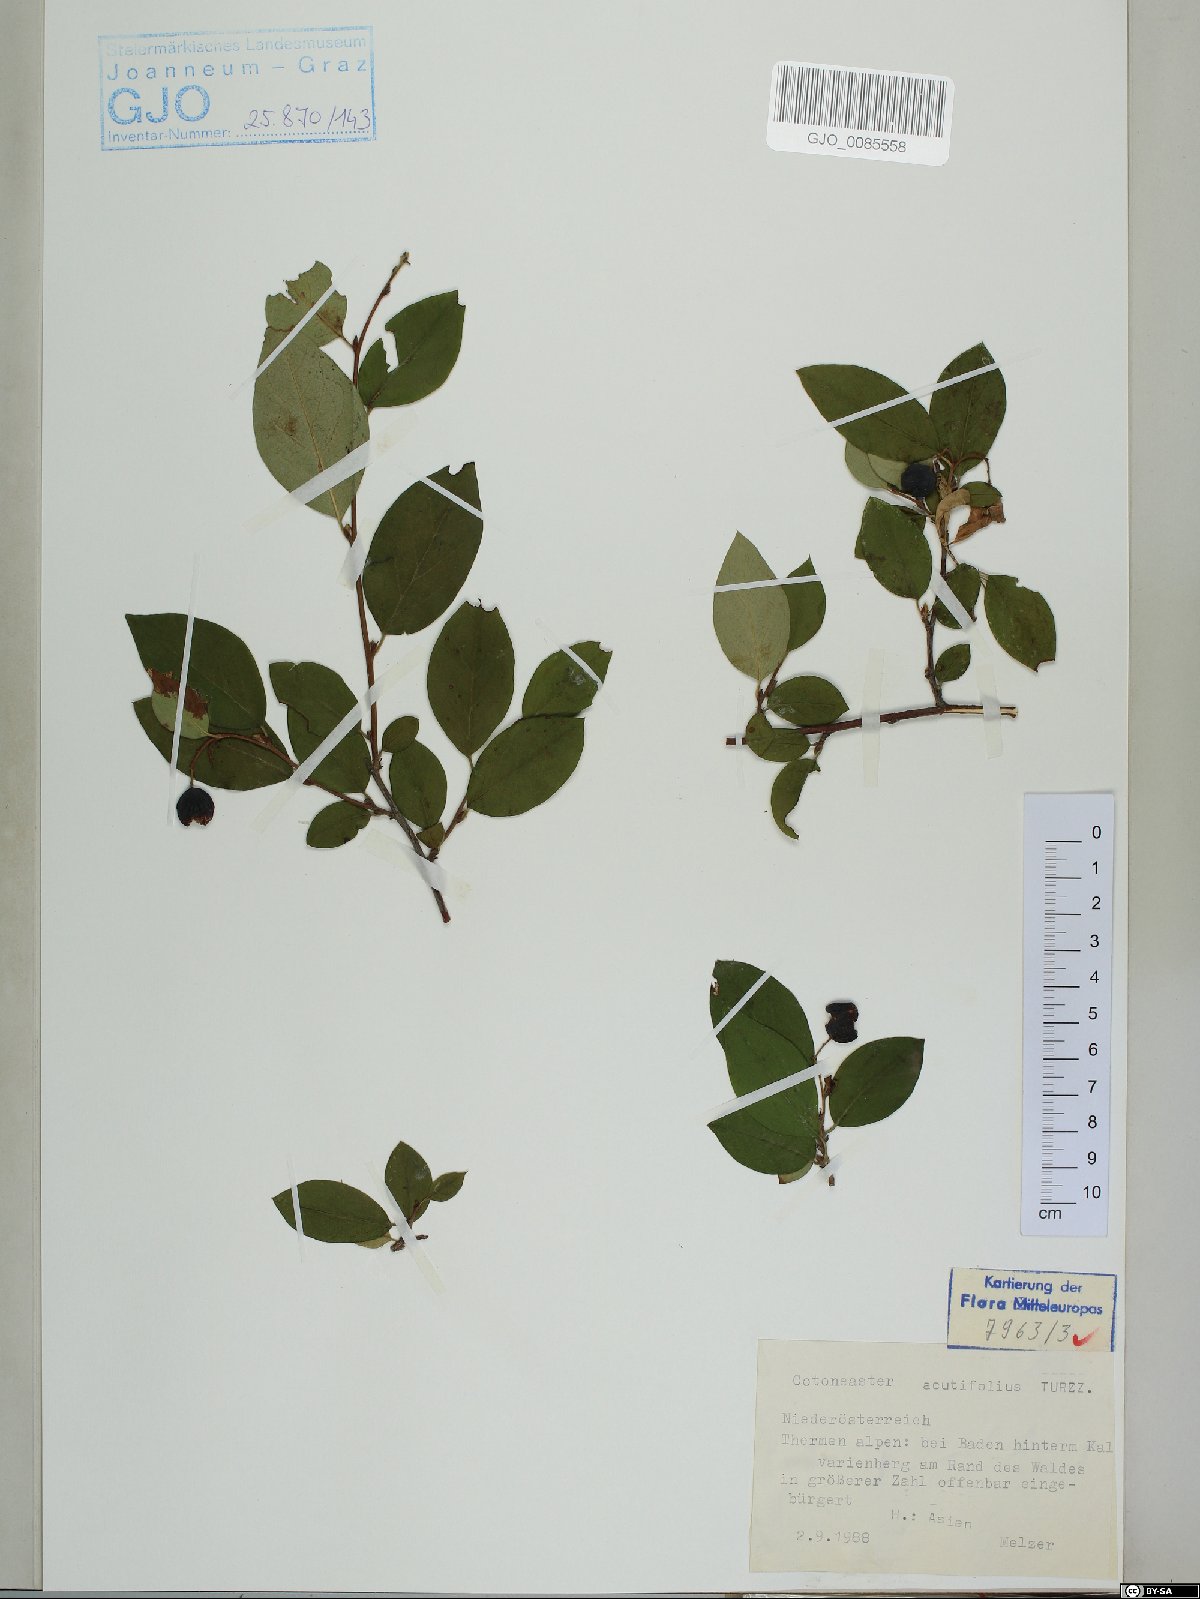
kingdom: Plantae
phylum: Tracheophyta
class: Magnoliopsida
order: Rosales
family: Rosaceae
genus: Cotoneaster
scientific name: Cotoneaster acutifolius
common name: Peking cotoneaster
